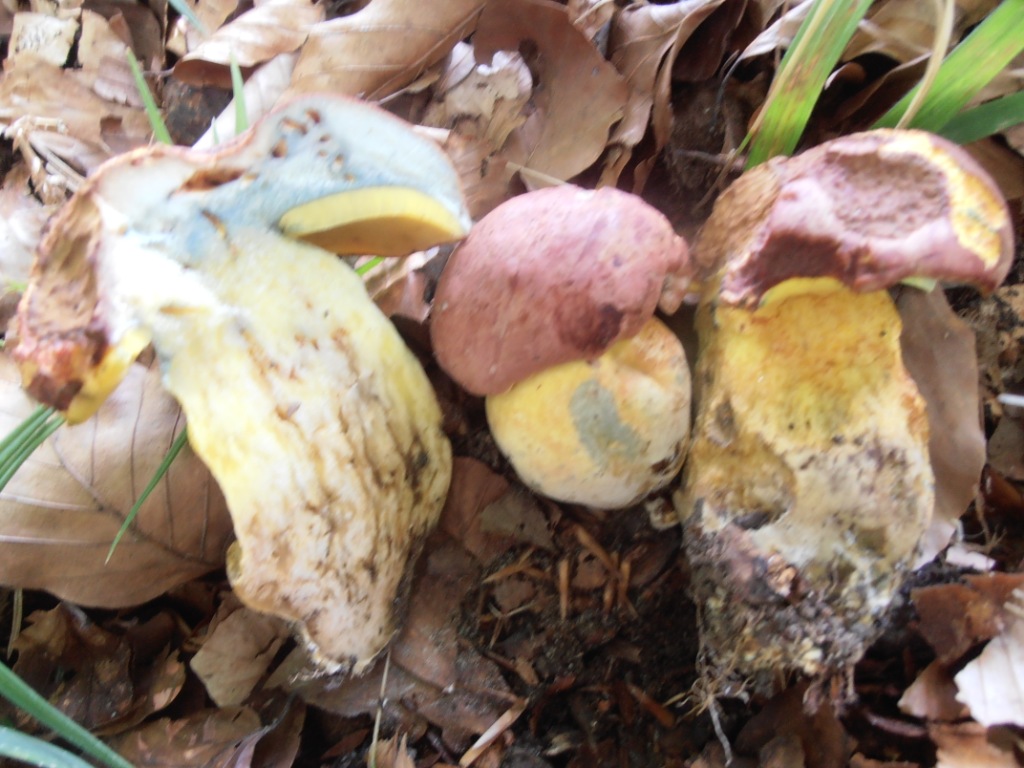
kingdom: Fungi
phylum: Basidiomycota
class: Agaricomycetes
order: Boletales
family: Boletaceae
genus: Butyriboletus
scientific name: Butyriboletus fuscoroseus
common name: brunrosa rørhat
